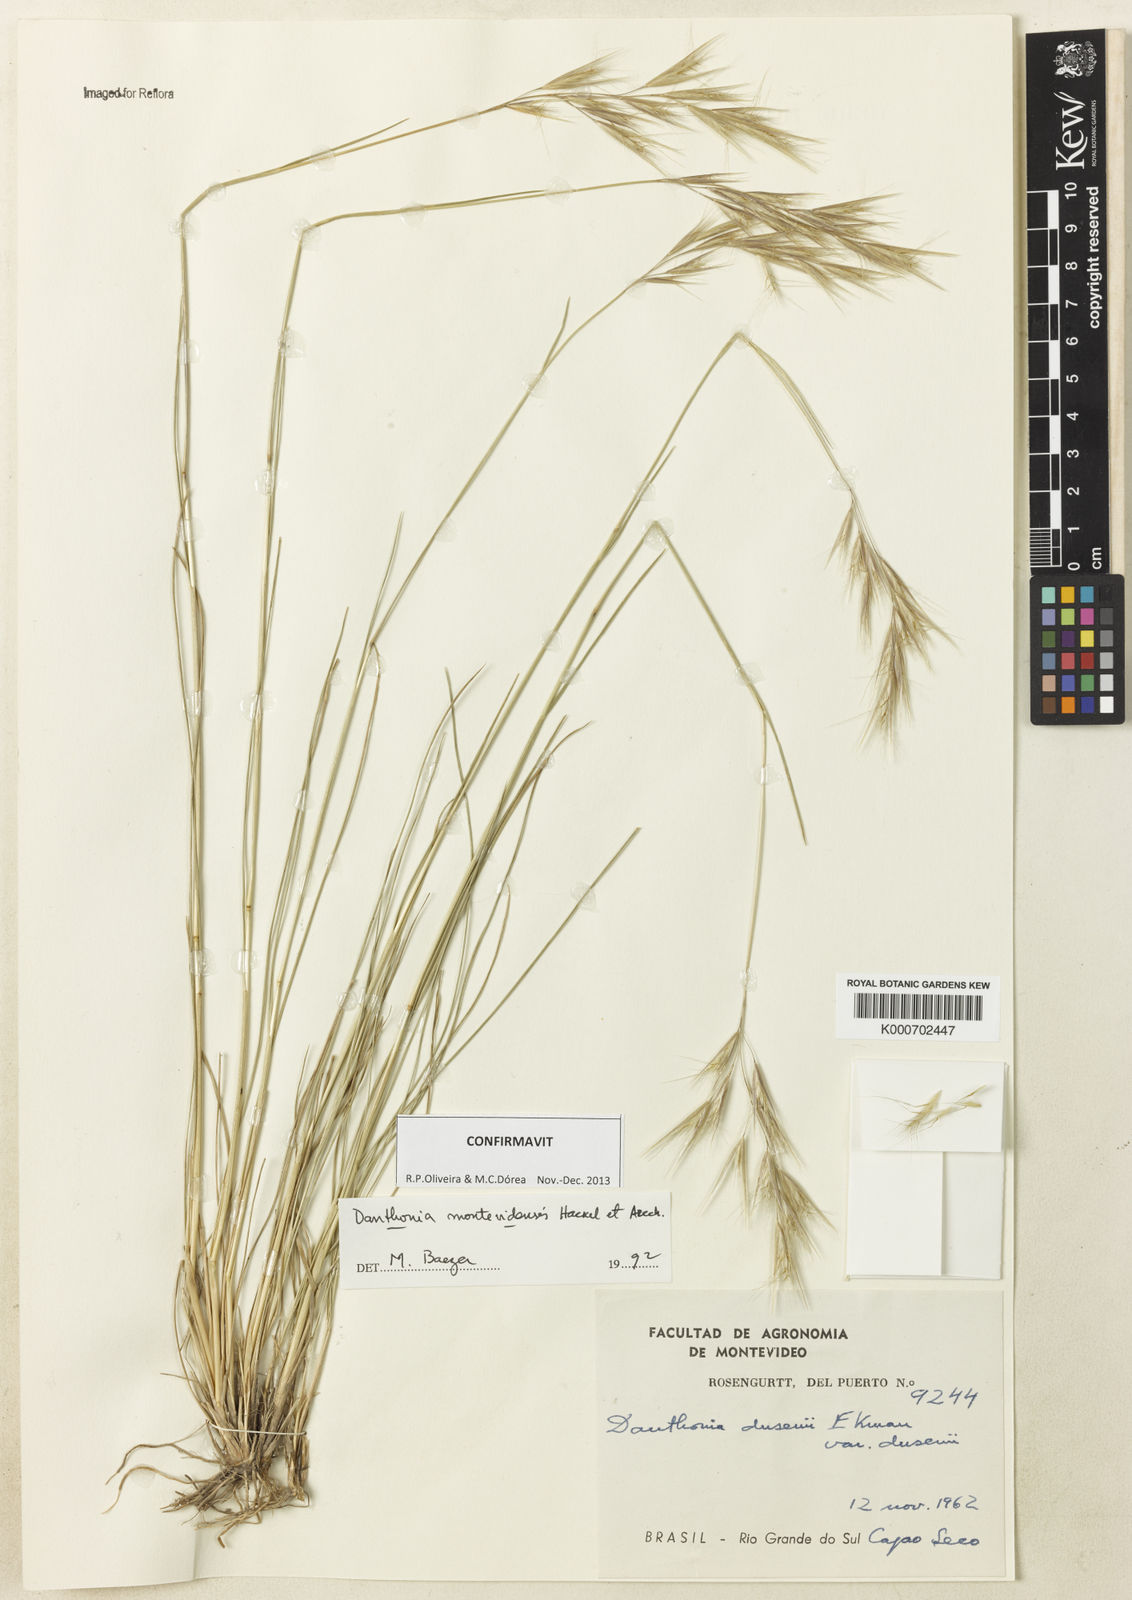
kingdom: Plantae
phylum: Tracheophyta
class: Liliopsida
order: Poales
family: Poaceae
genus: Danthonia
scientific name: Danthonia montevidensis
